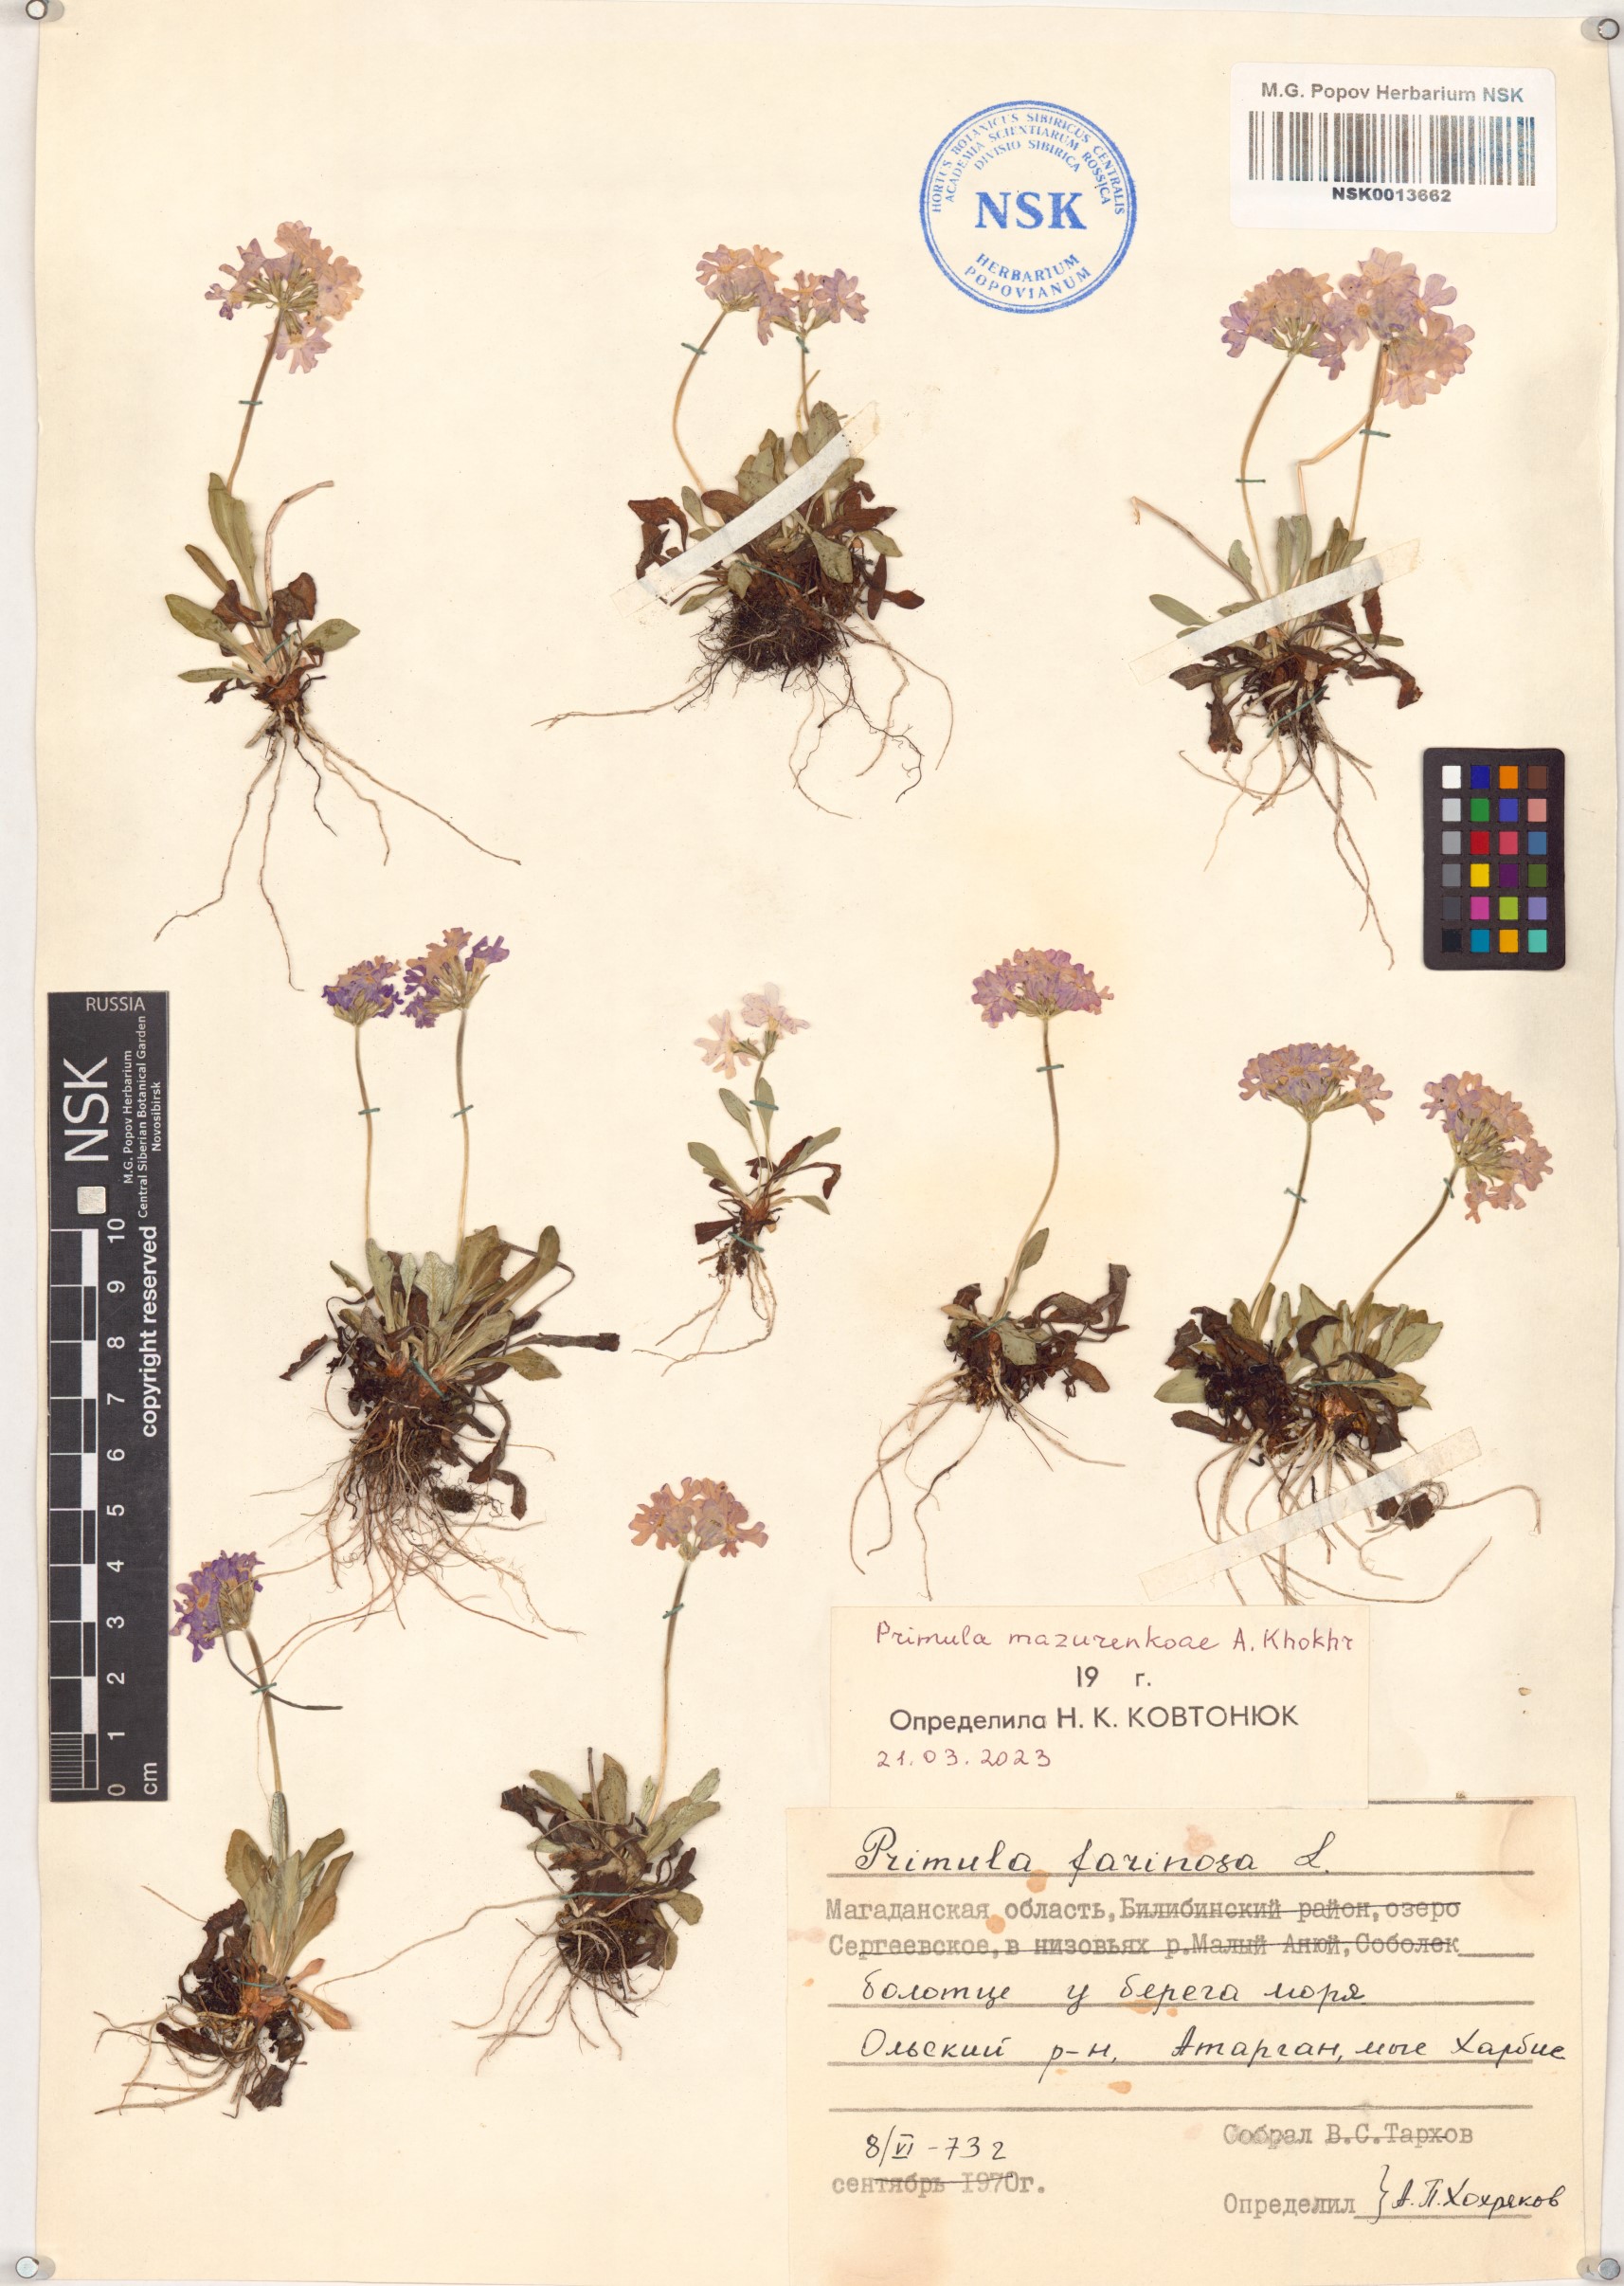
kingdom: Plantae
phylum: Tracheophyta
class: Magnoliopsida
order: Ericales
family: Primulaceae
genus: Primula
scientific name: Primula farinosa
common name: Bird's-eye primrose
